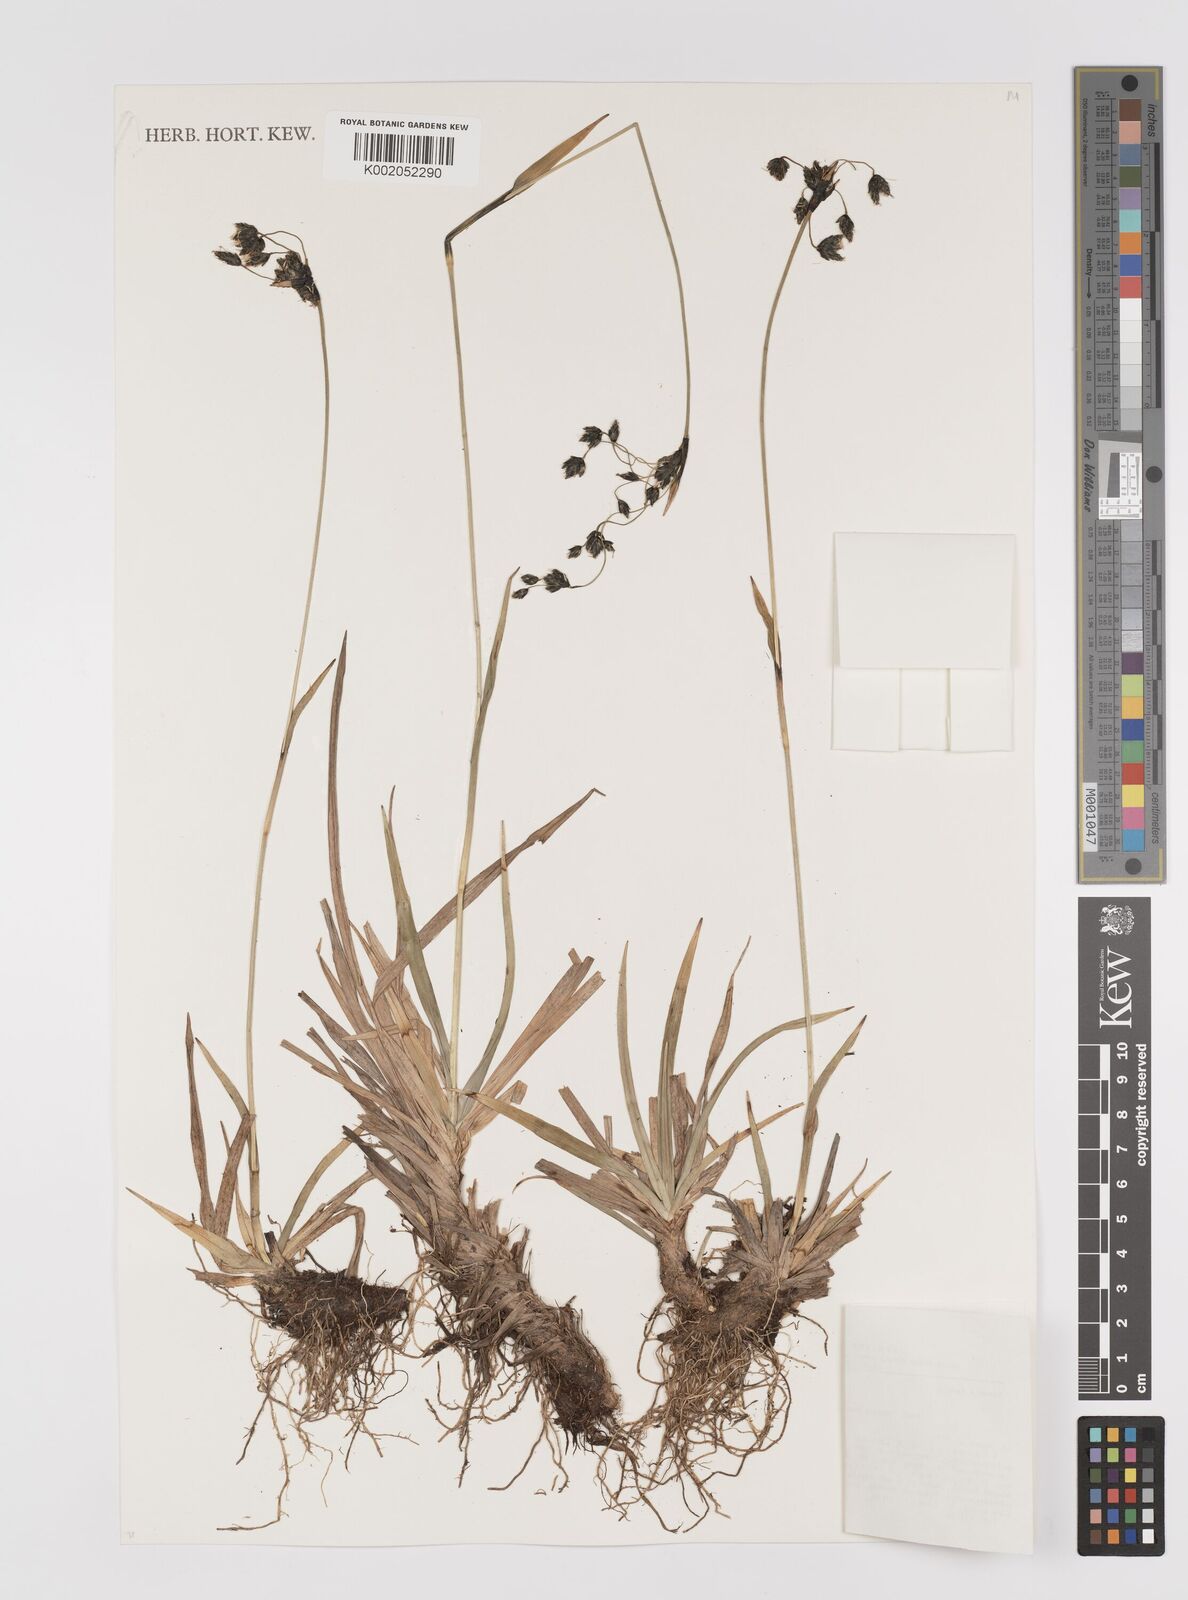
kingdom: Plantae
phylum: Tracheophyta
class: Liliopsida
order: Poales
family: Cyperaceae
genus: Scirpus
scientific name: Scirpus maximowiczii
